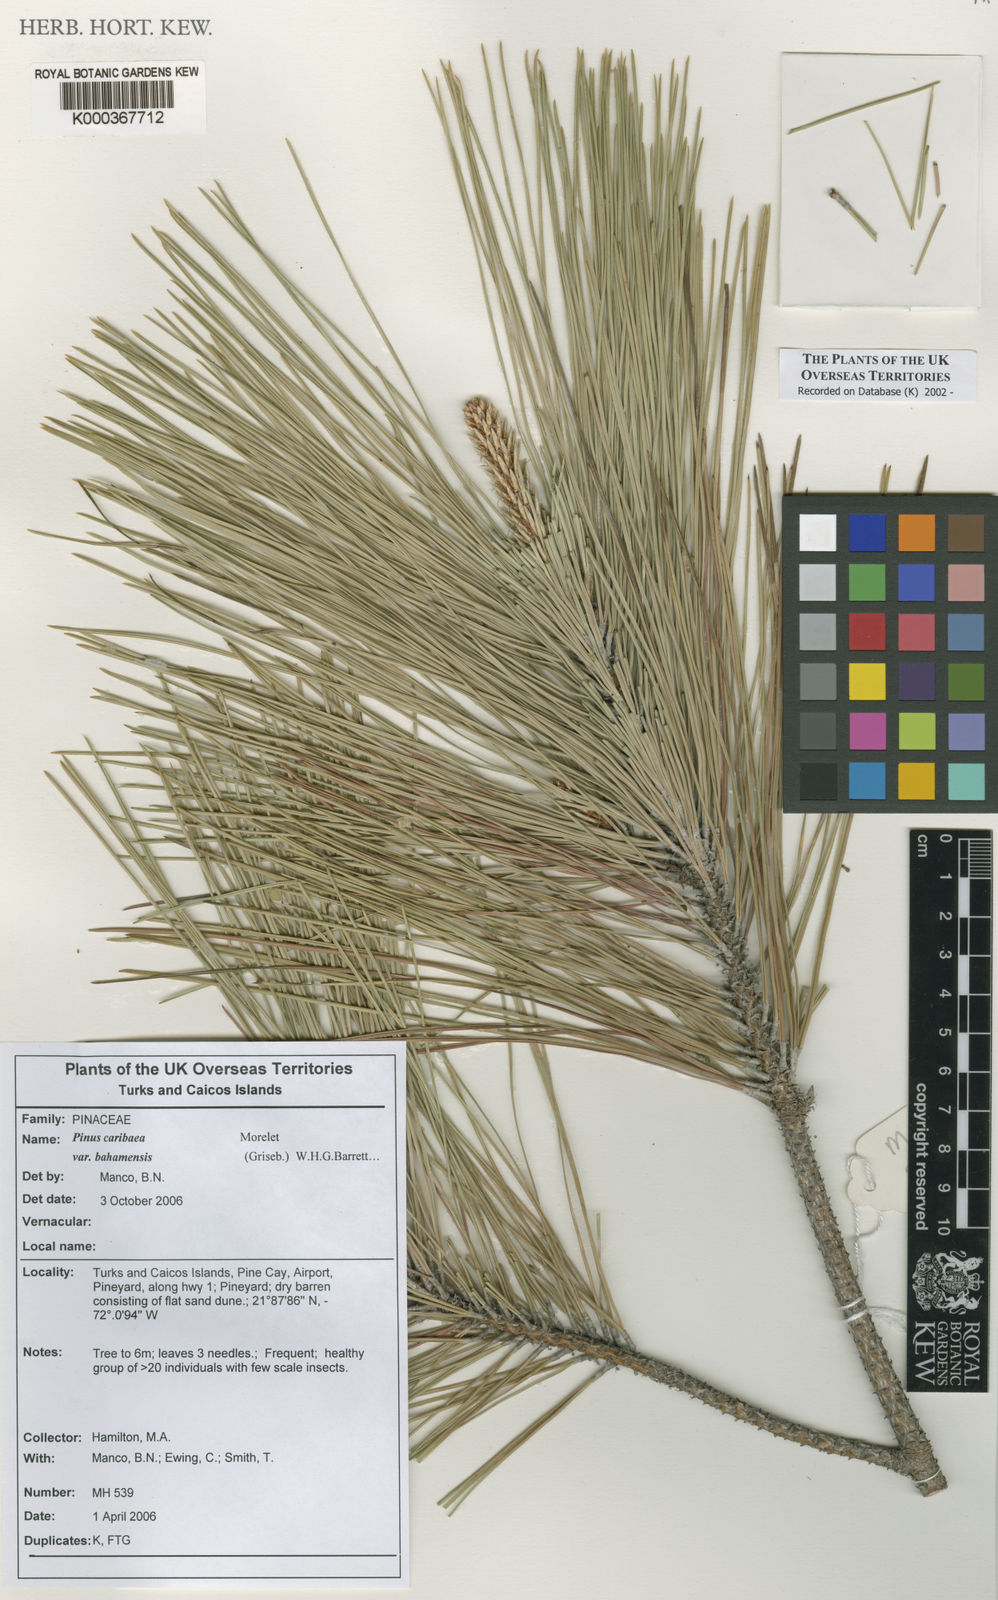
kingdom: Plantae
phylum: Tracheophyta
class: Pinopsida
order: Pinales
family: Pinaceae
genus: Pinus
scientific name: Pinus caribaea
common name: Caribbean pine
